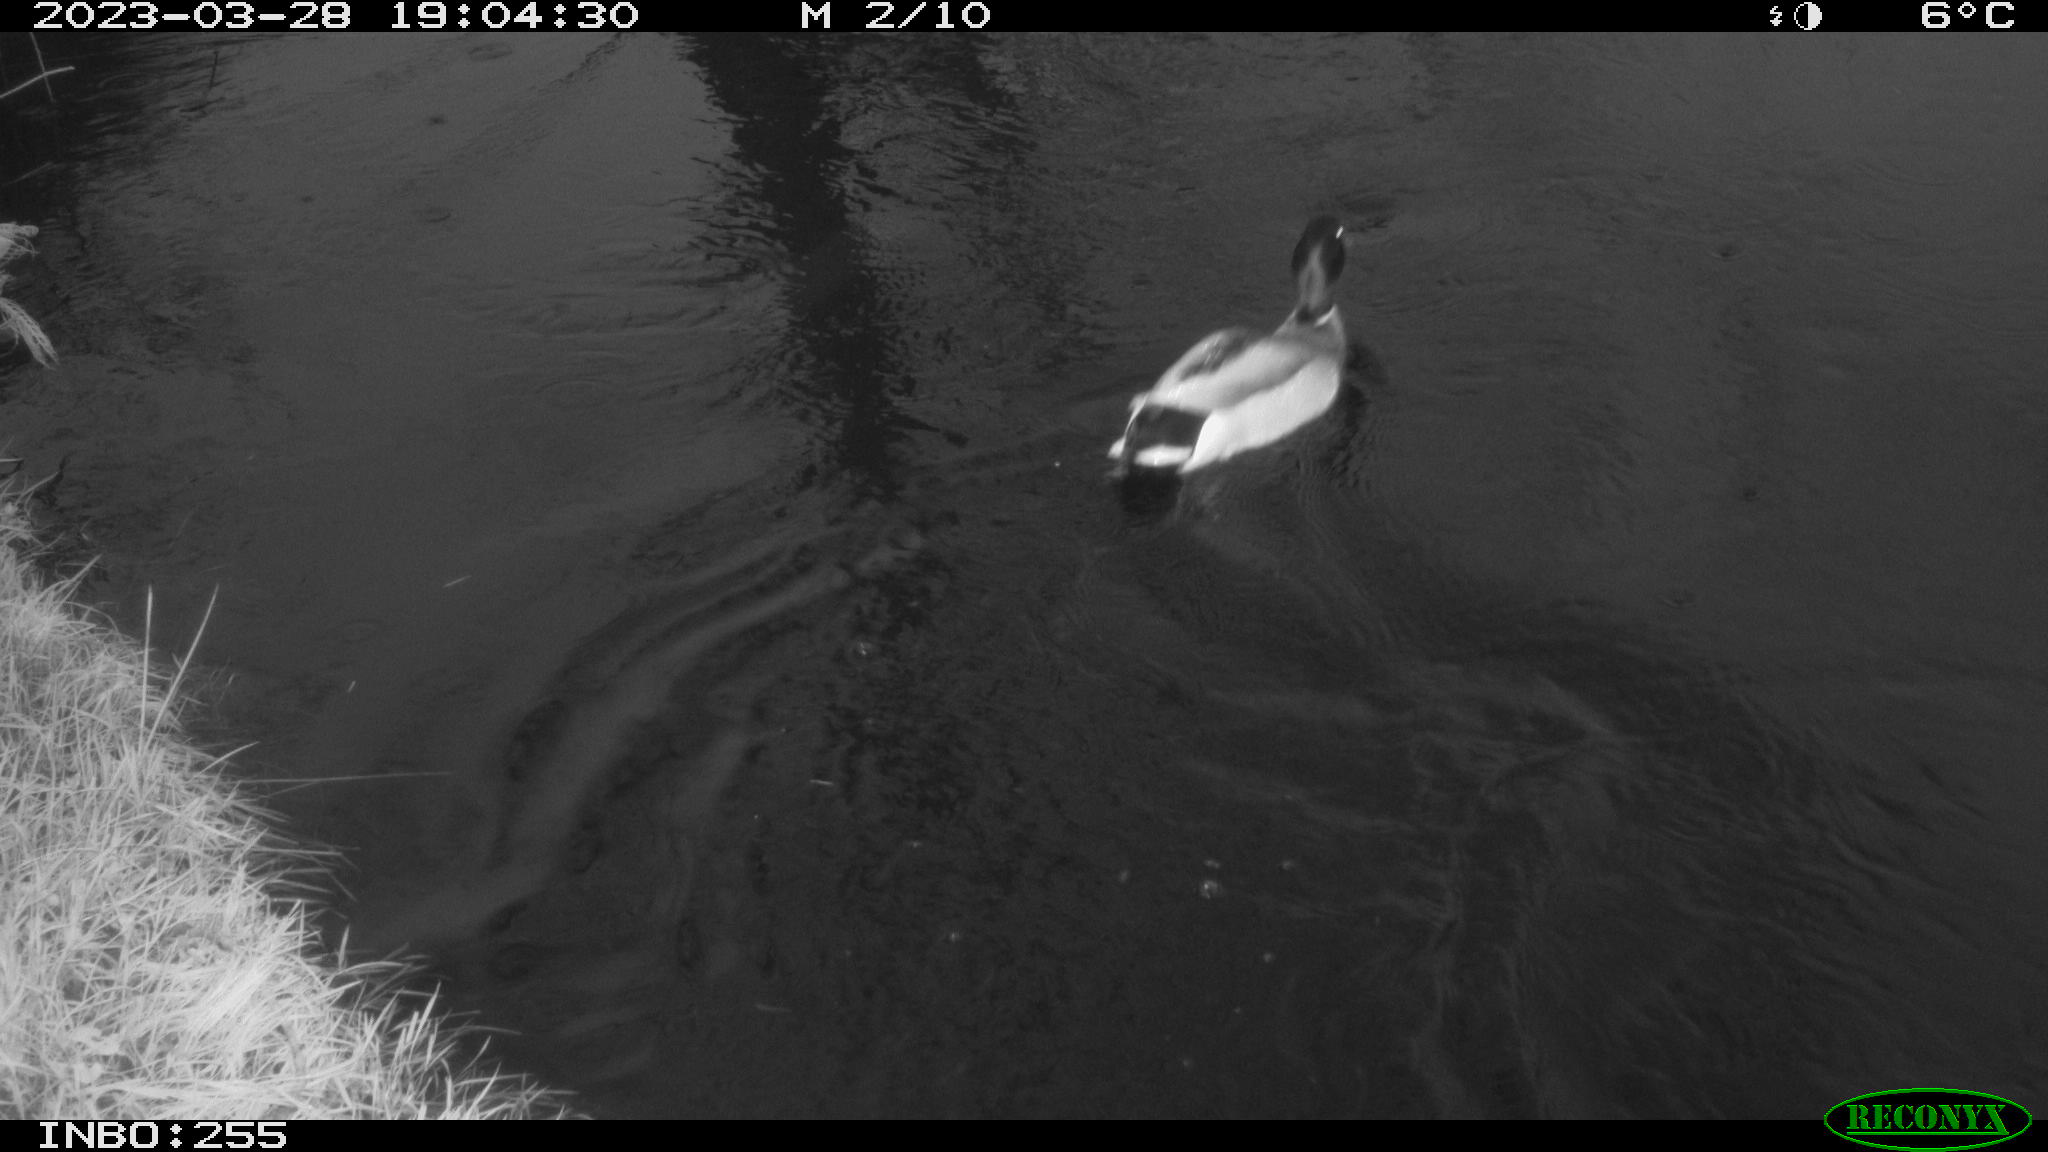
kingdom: Animalia
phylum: Chordata
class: Aves
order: Pelecaniformes
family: Ardeidae
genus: Ardea
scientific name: Ardea cinerea
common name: Grey heron
